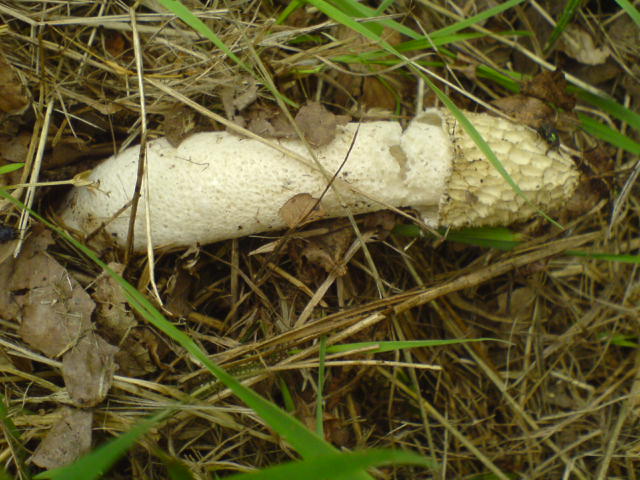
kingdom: Fungi
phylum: Basidiomycota
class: Agaricomycetes
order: Phallales
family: Phallaceae
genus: Phallus
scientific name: Phallus impudicus
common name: almindelig stinksvamp
